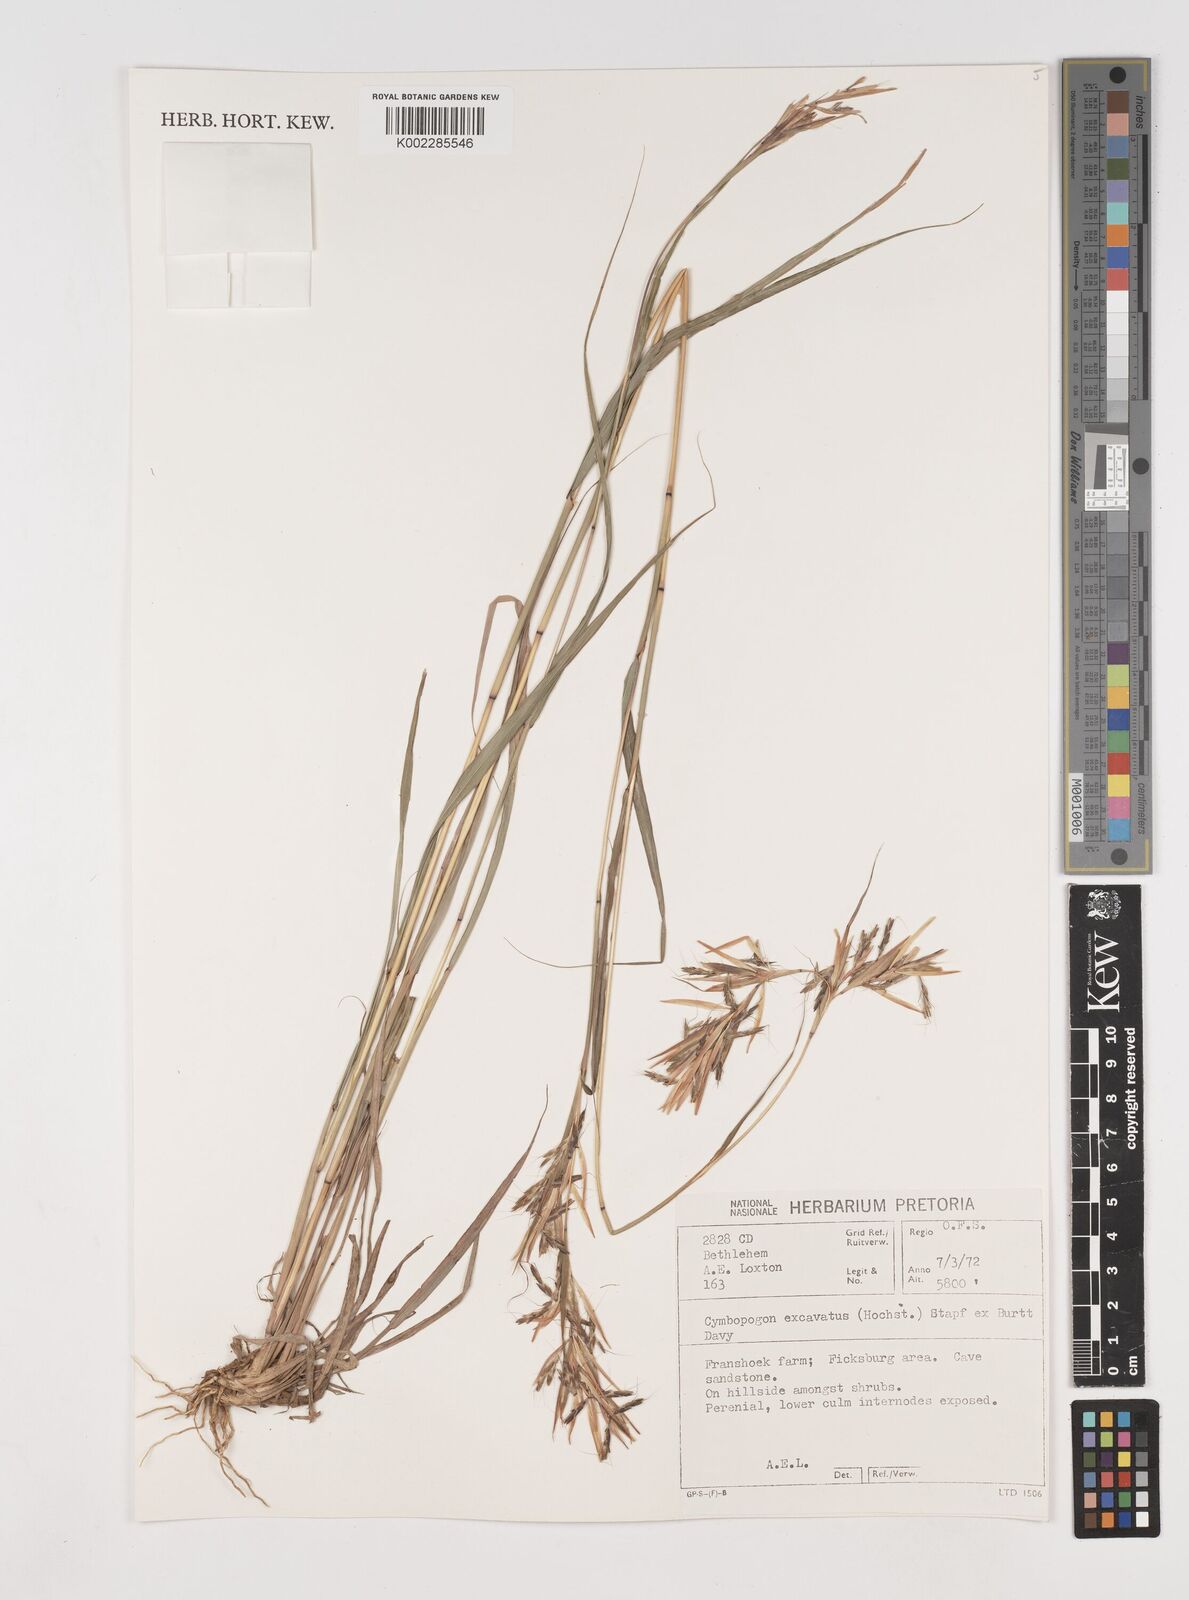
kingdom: Plantae
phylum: Tracheophyta
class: Liliopsida
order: Poales
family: Poaceae
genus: Cymbopogon
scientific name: Cymbopogon caesius
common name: Kachi grass
